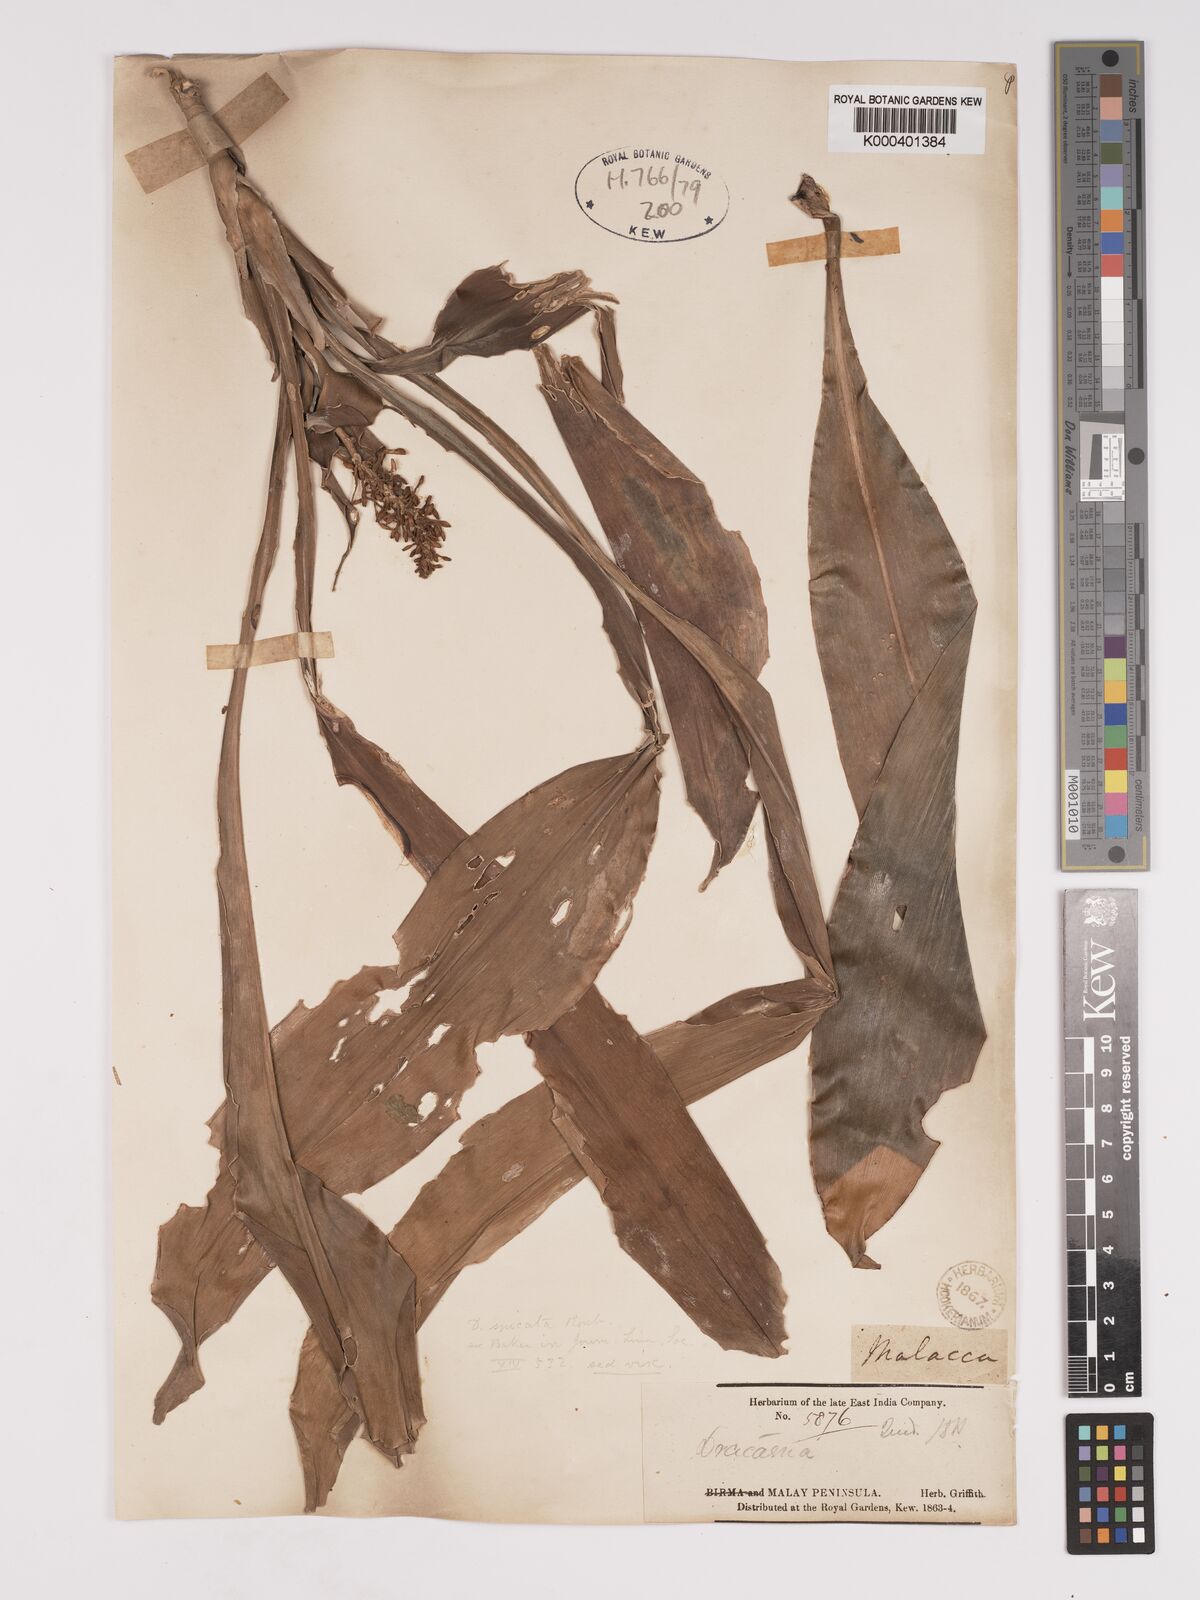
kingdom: Plantae
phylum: Tracheophyta
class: Liliopsida
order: Asparagales
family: Asparagaceae
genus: Dracaena
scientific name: Dracaena spicata
